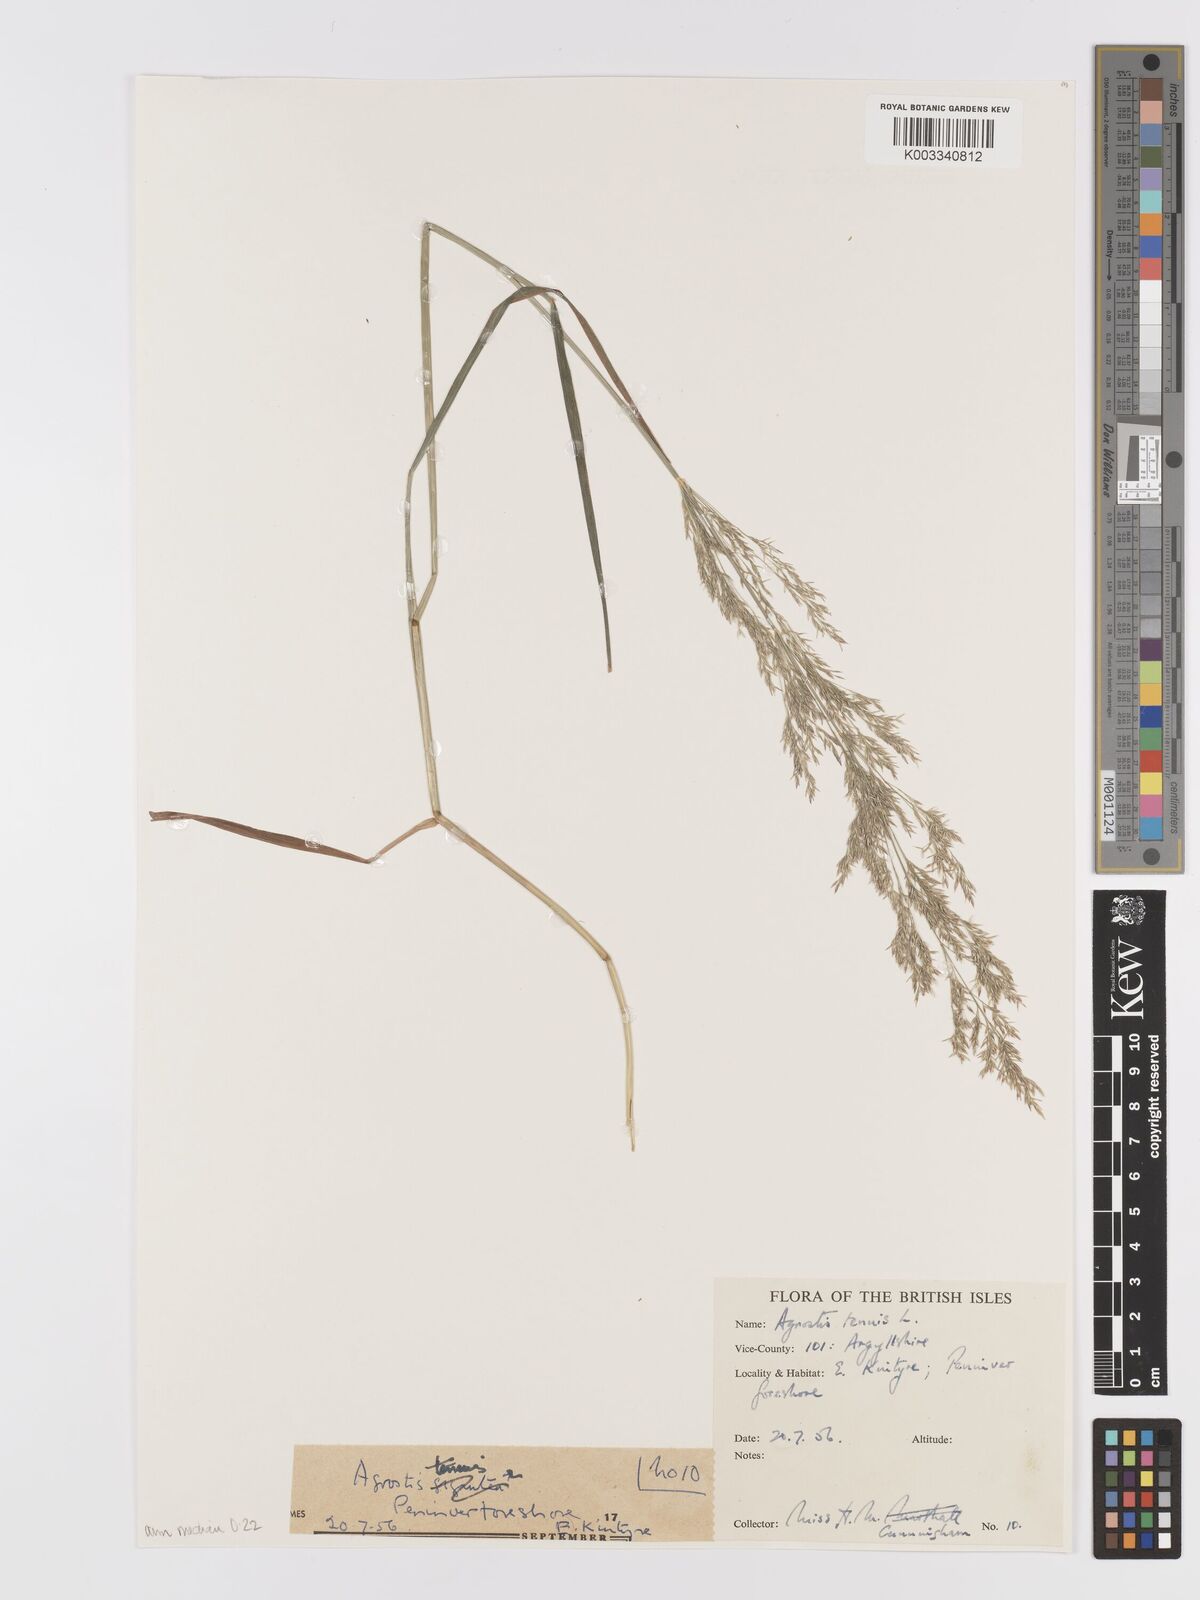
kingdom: Plantae
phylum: Tracheophyta
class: Liliopsida
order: Poales
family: Poaceae
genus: Agrostis
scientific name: Agrostis capillaris
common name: Colonial bentgrass
